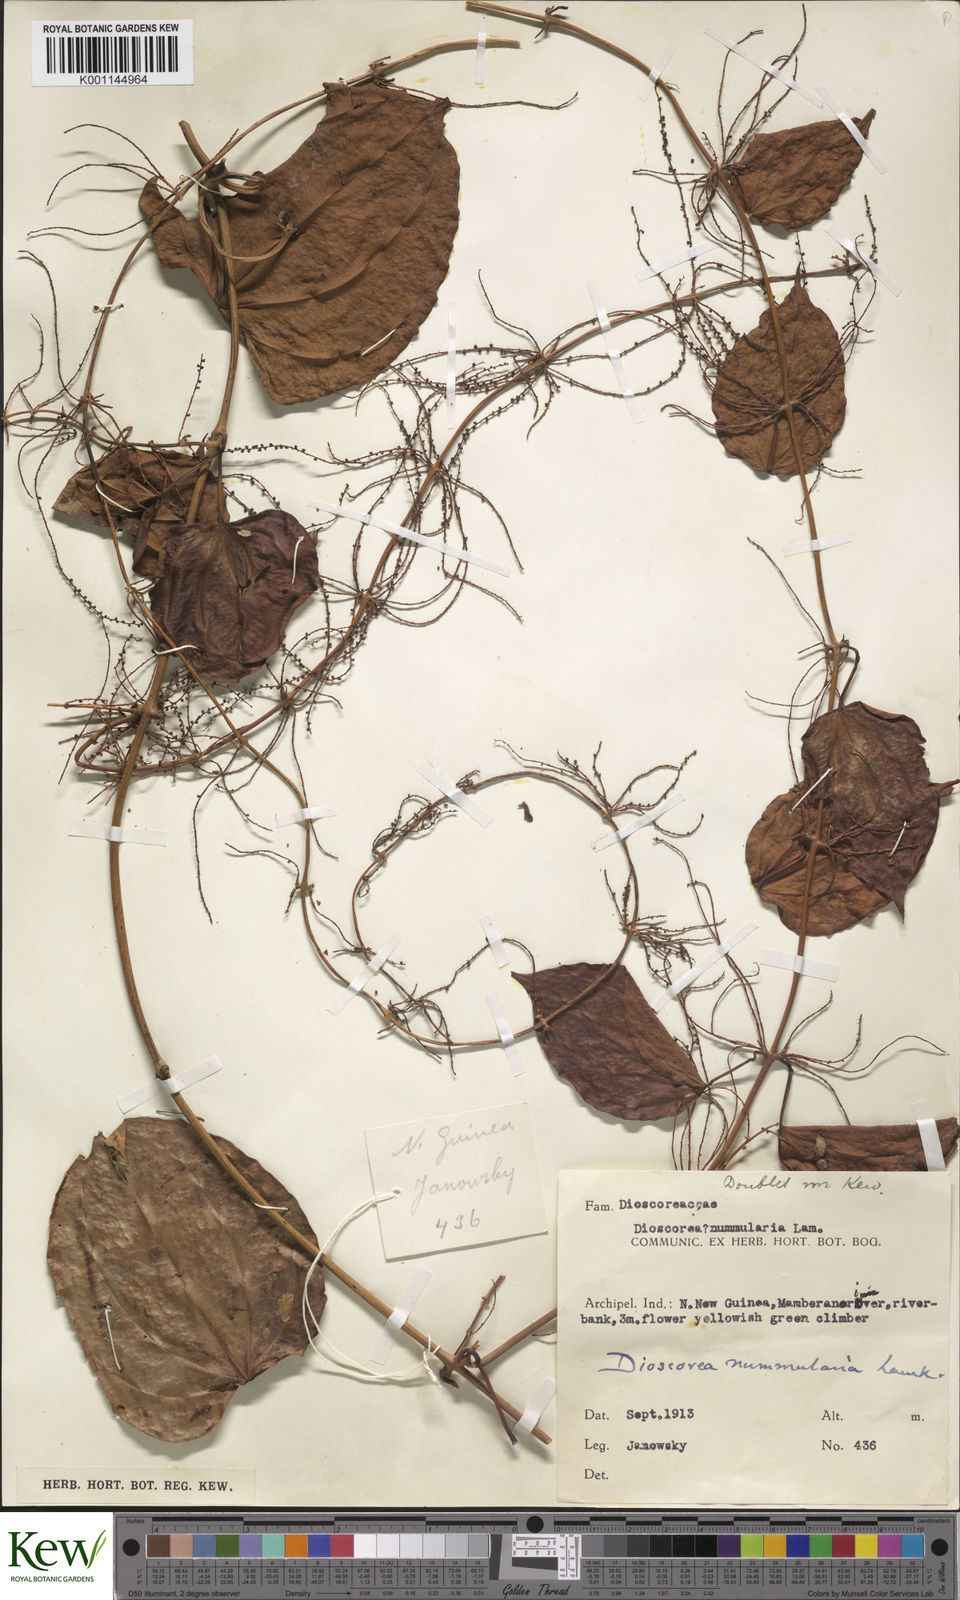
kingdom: Plantae
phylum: Tracheophyta
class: Liliopsida
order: Dioscoreales
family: Dioscoreaceae
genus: Dioscorea
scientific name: Dioscorea nummularia
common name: Pacific yam
